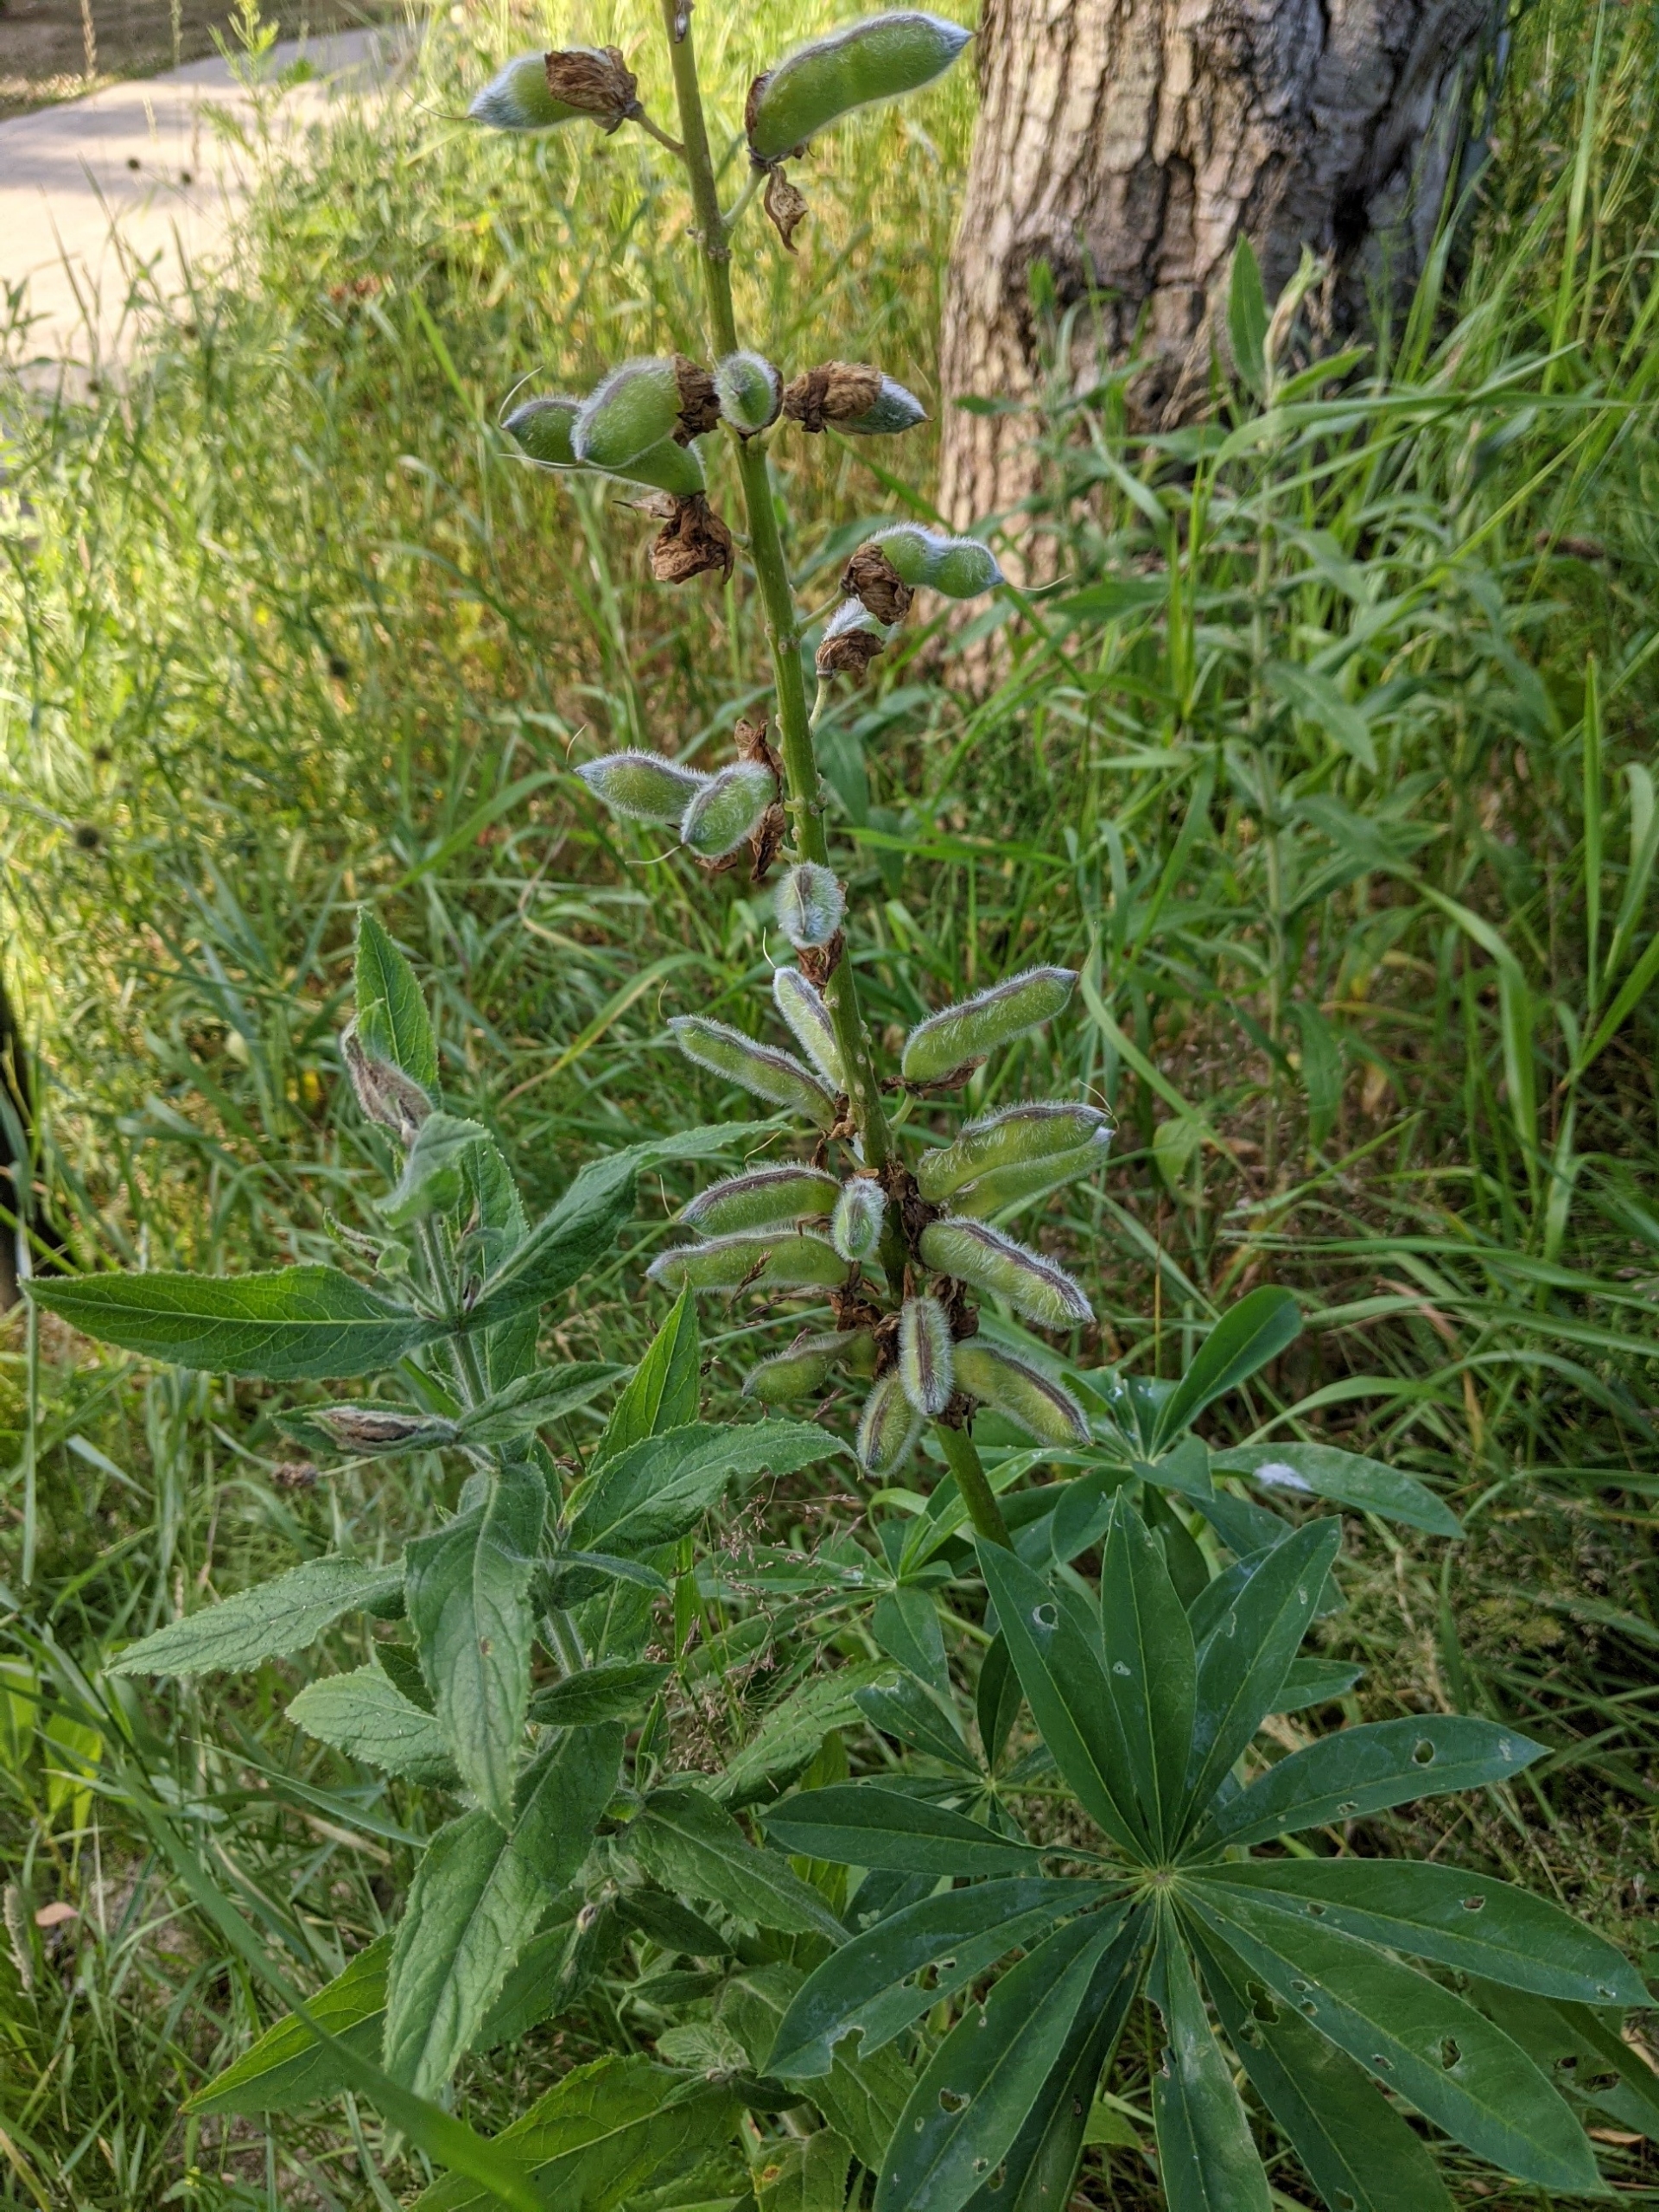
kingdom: Plantae
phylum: Tracheophyta
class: Magnoliopsida
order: Fabales
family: Fabaceae
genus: Lupinus
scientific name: Lupinus polyphyllus
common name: Mangebladet lupin
